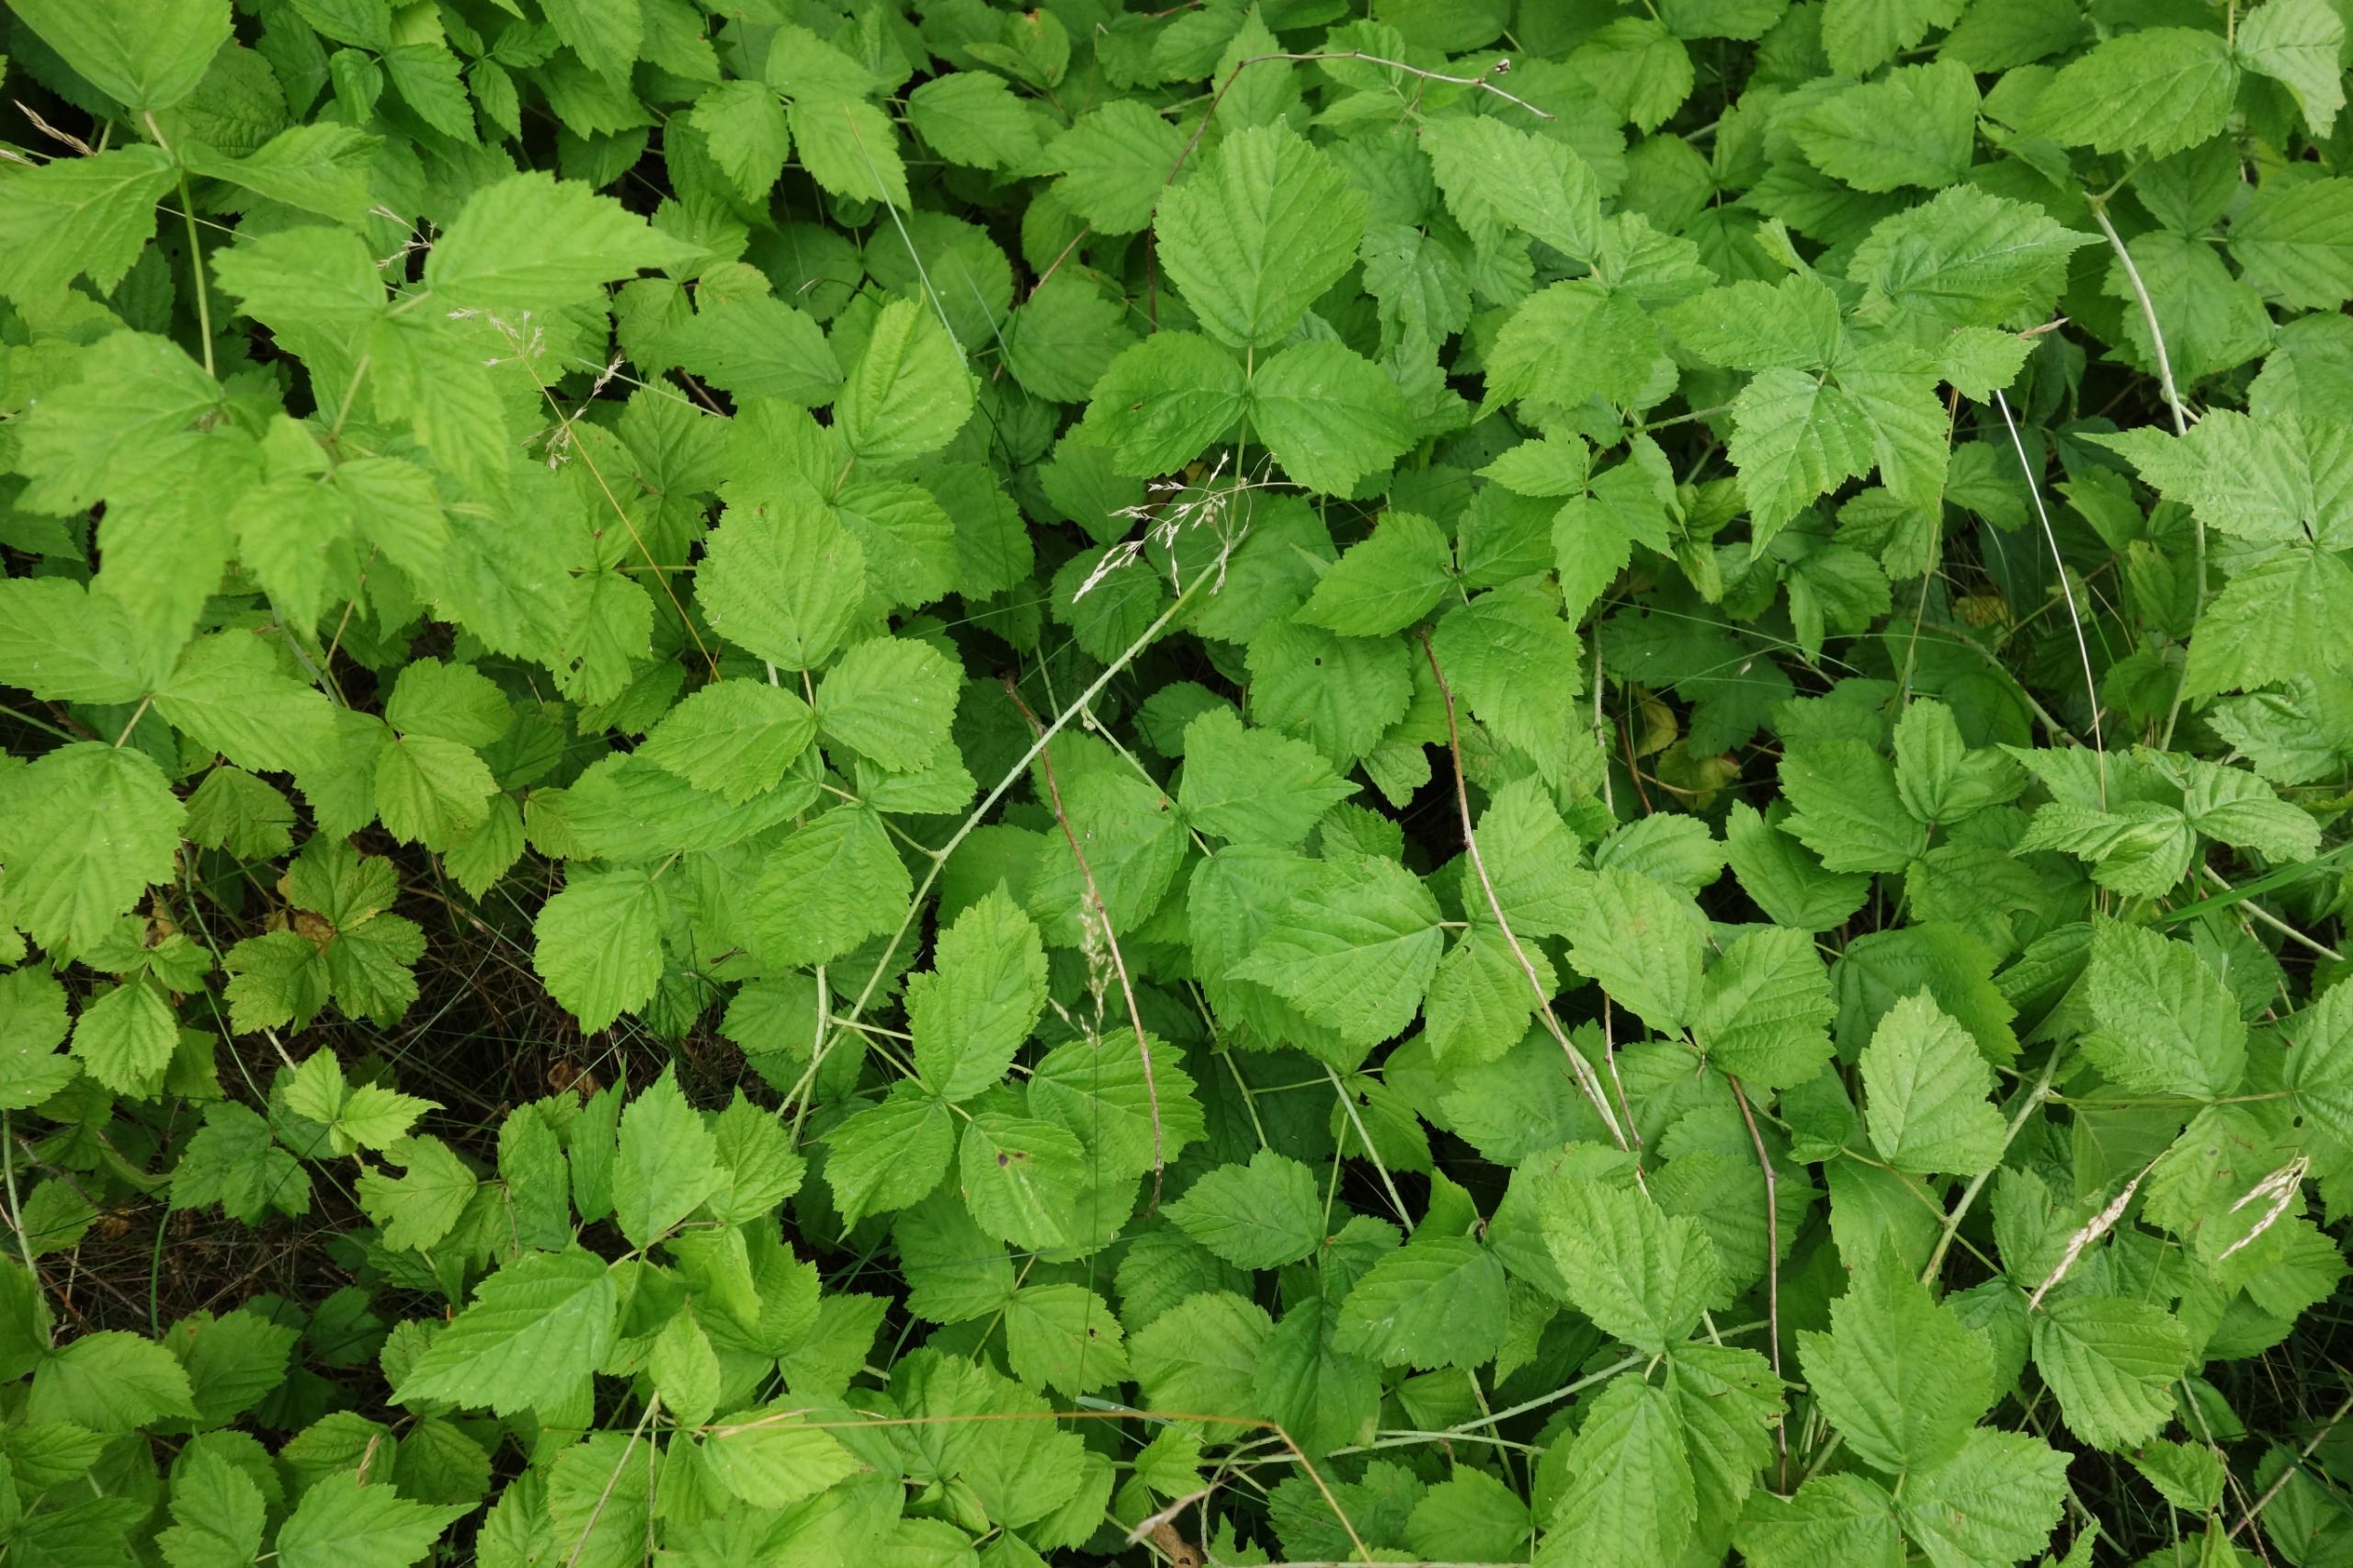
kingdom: Plantae
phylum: Tracheophyta
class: Magnoliopsida
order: Rosales
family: Rosaceae
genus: Rubus
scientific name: Rubus caesius
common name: Korbær
